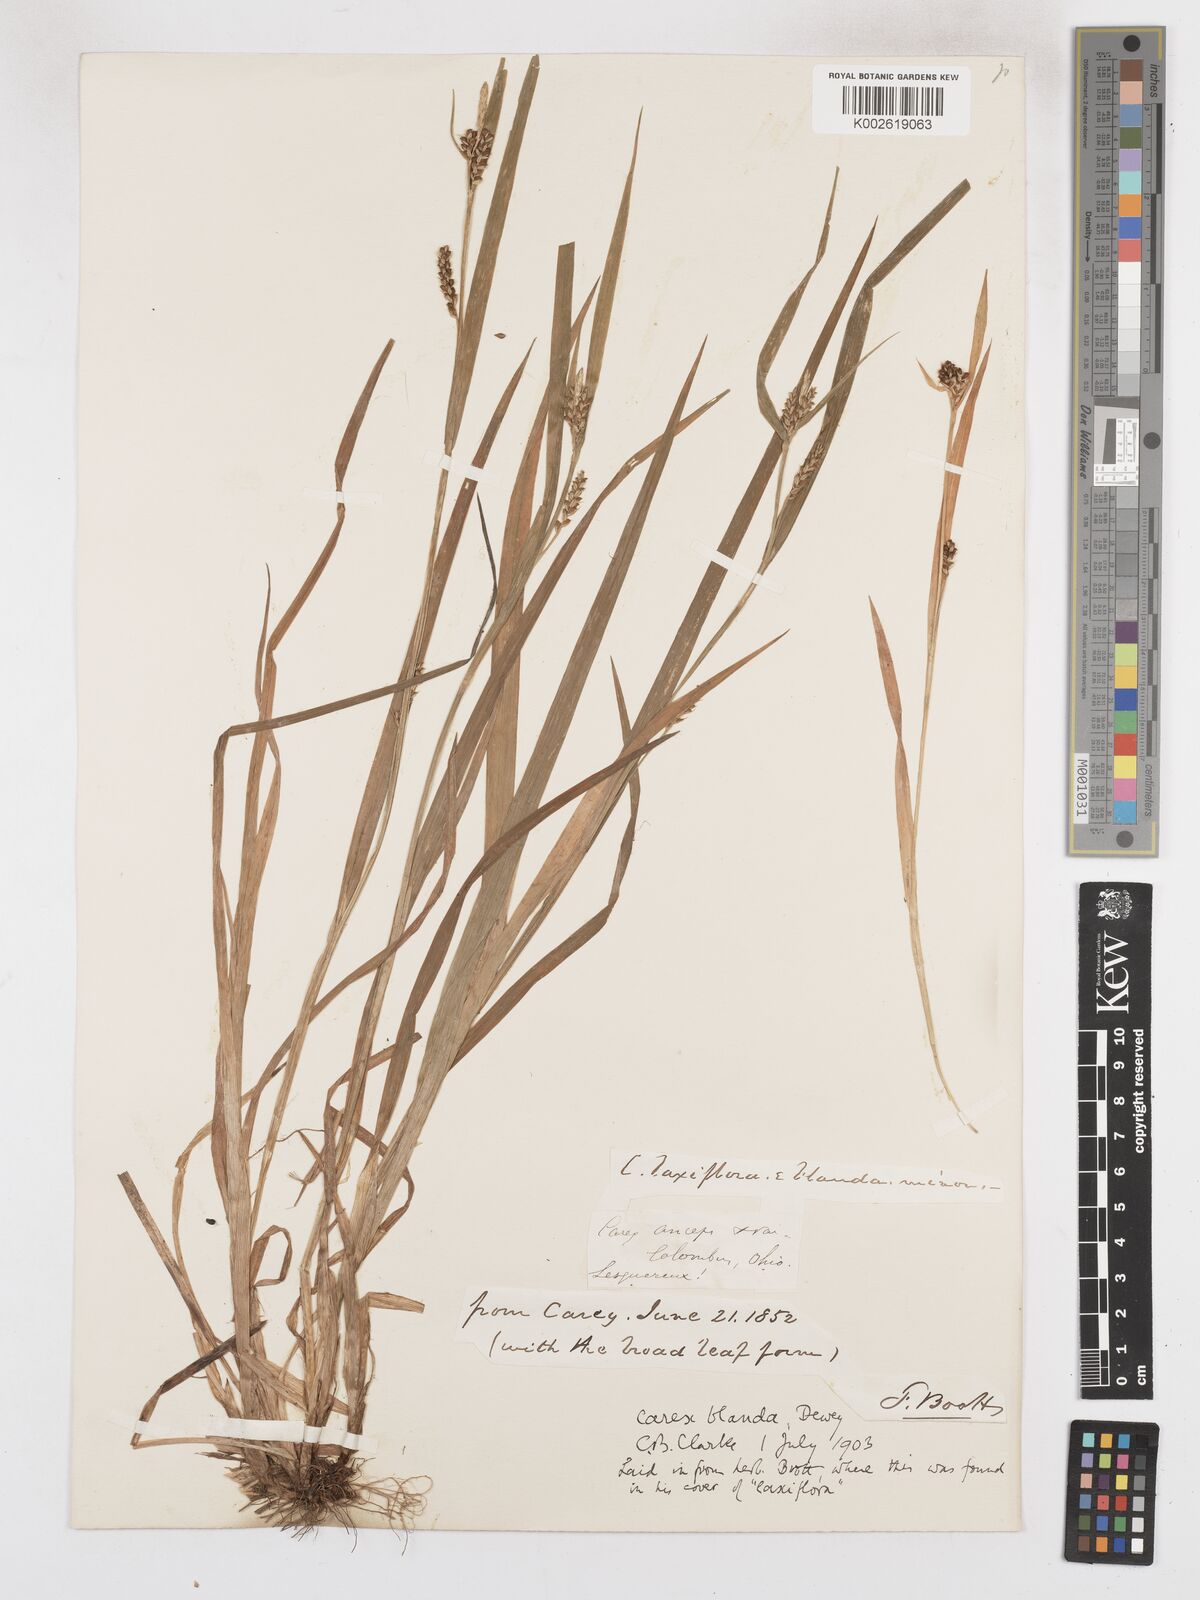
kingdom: Plantae
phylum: Tracheophyta
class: Liliopsida
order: Poales
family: Cyperaceae
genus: Carex
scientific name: Carex blanda
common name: Bland sedge
